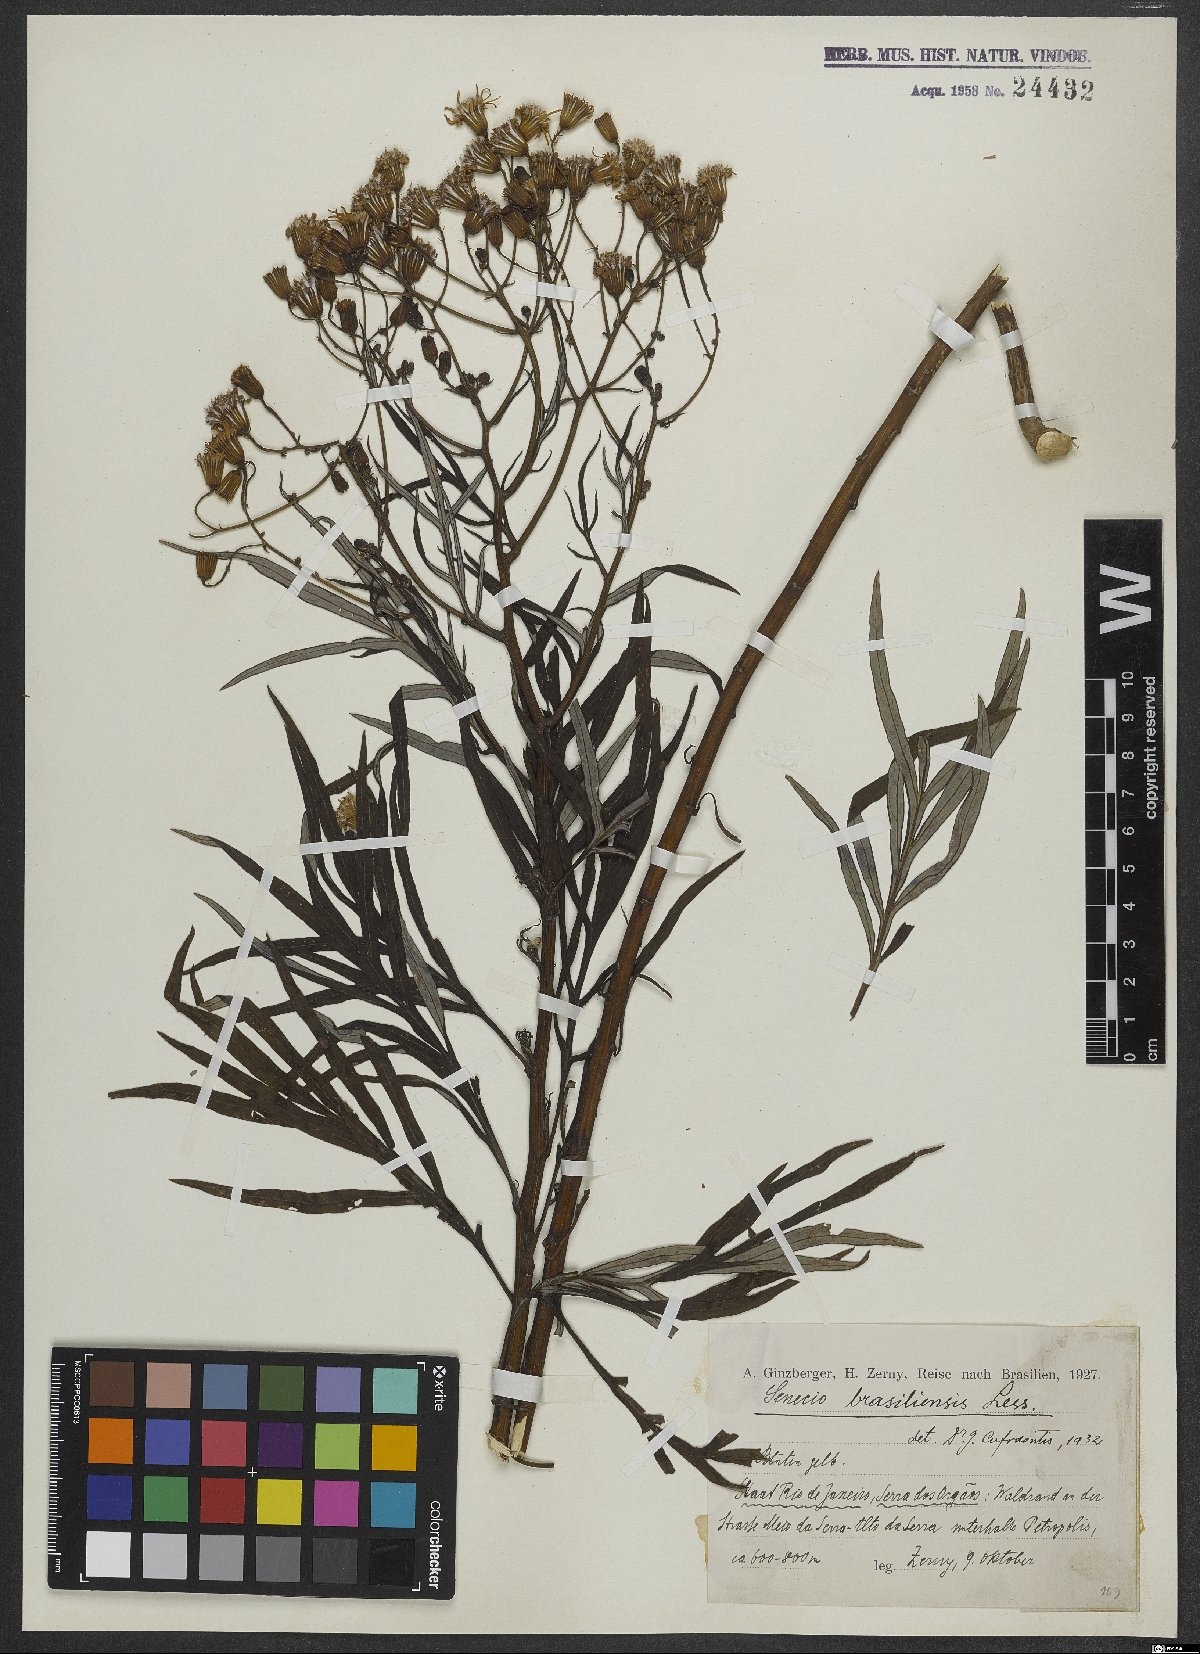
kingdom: Plantae
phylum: Tracheophyta
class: Magnoliopsida
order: Asterales
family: Asteraceae
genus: Senecio
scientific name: Senecio brasiliensis
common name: Hemp-leaf ragwort
